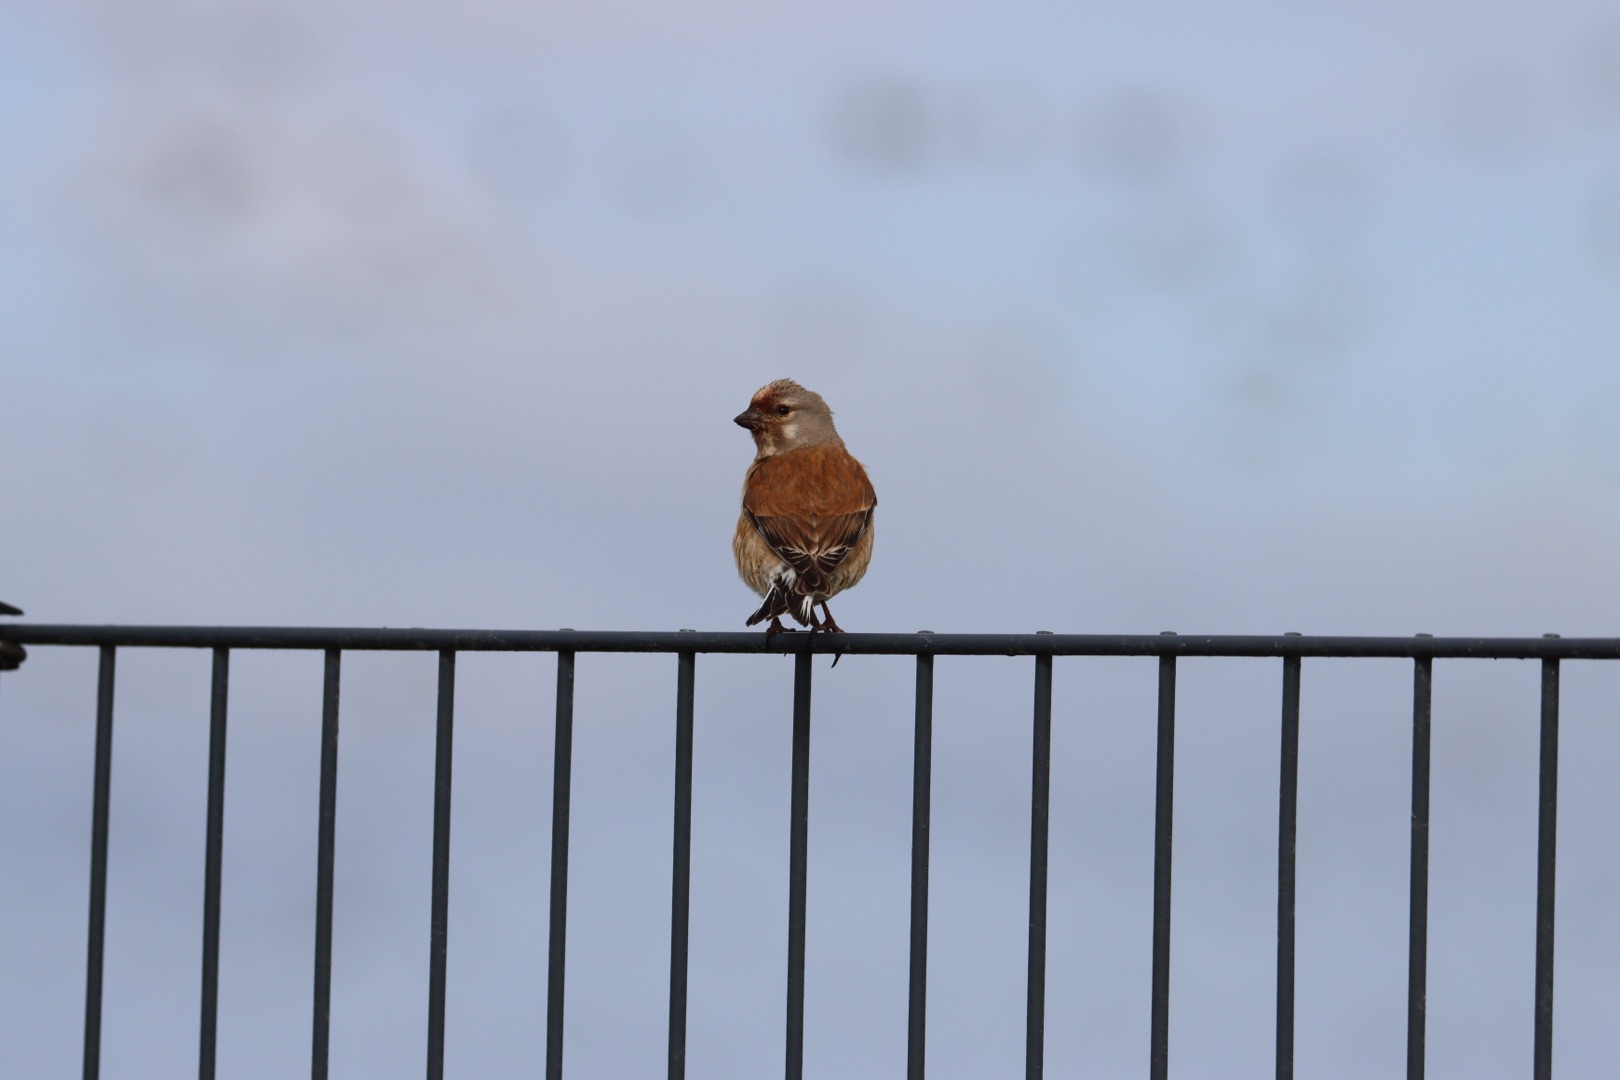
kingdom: Animalia
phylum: Chordata
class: Aves
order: Passeriformes
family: Fringillidae
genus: Linaria
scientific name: Linaria cannabina
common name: Tornirisk
